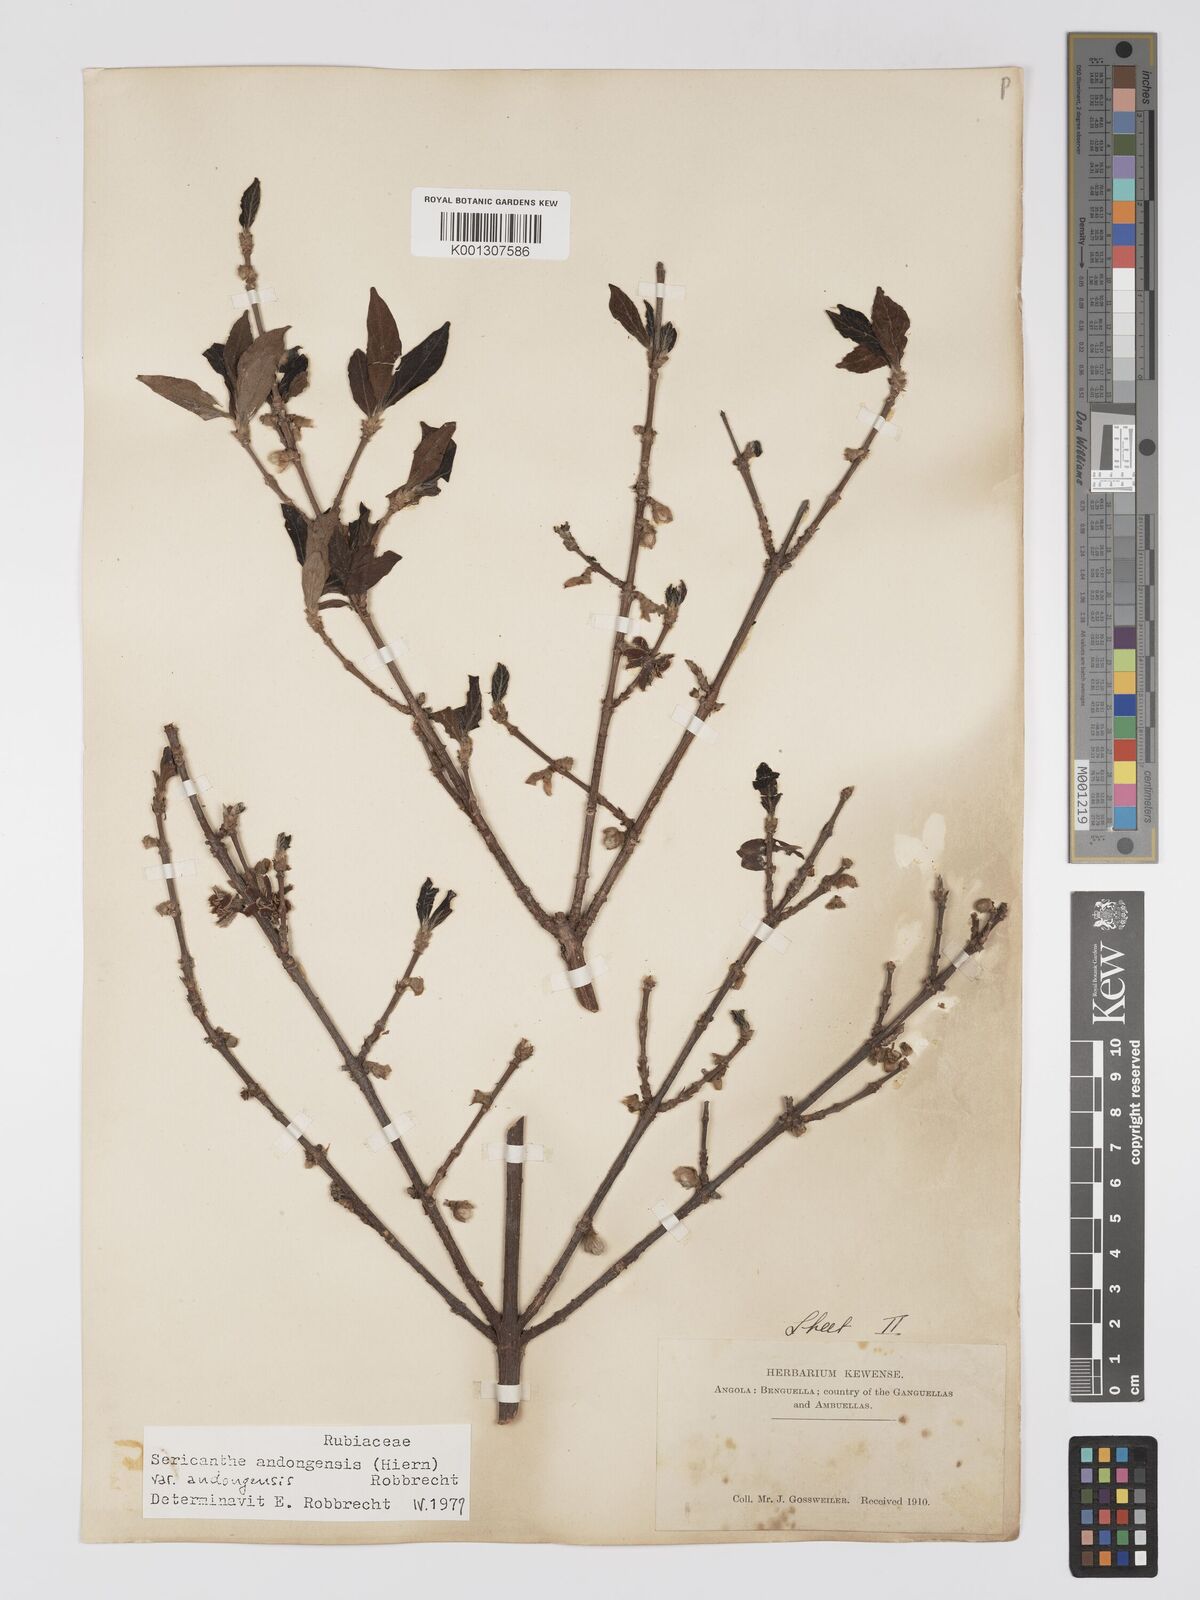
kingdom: Plantae
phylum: Tracheophyta
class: Magnoliopsida
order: Gentianales
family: Rubiaceae
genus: Sericanthe
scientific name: Sericanthe andongensis
